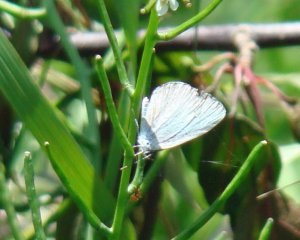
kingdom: Animalia
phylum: Arthropoda
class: Insecta
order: Lepidoptera
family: Lycaenidae
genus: Cyaniris
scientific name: Cyaniris neglecta
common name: Summer Azure
